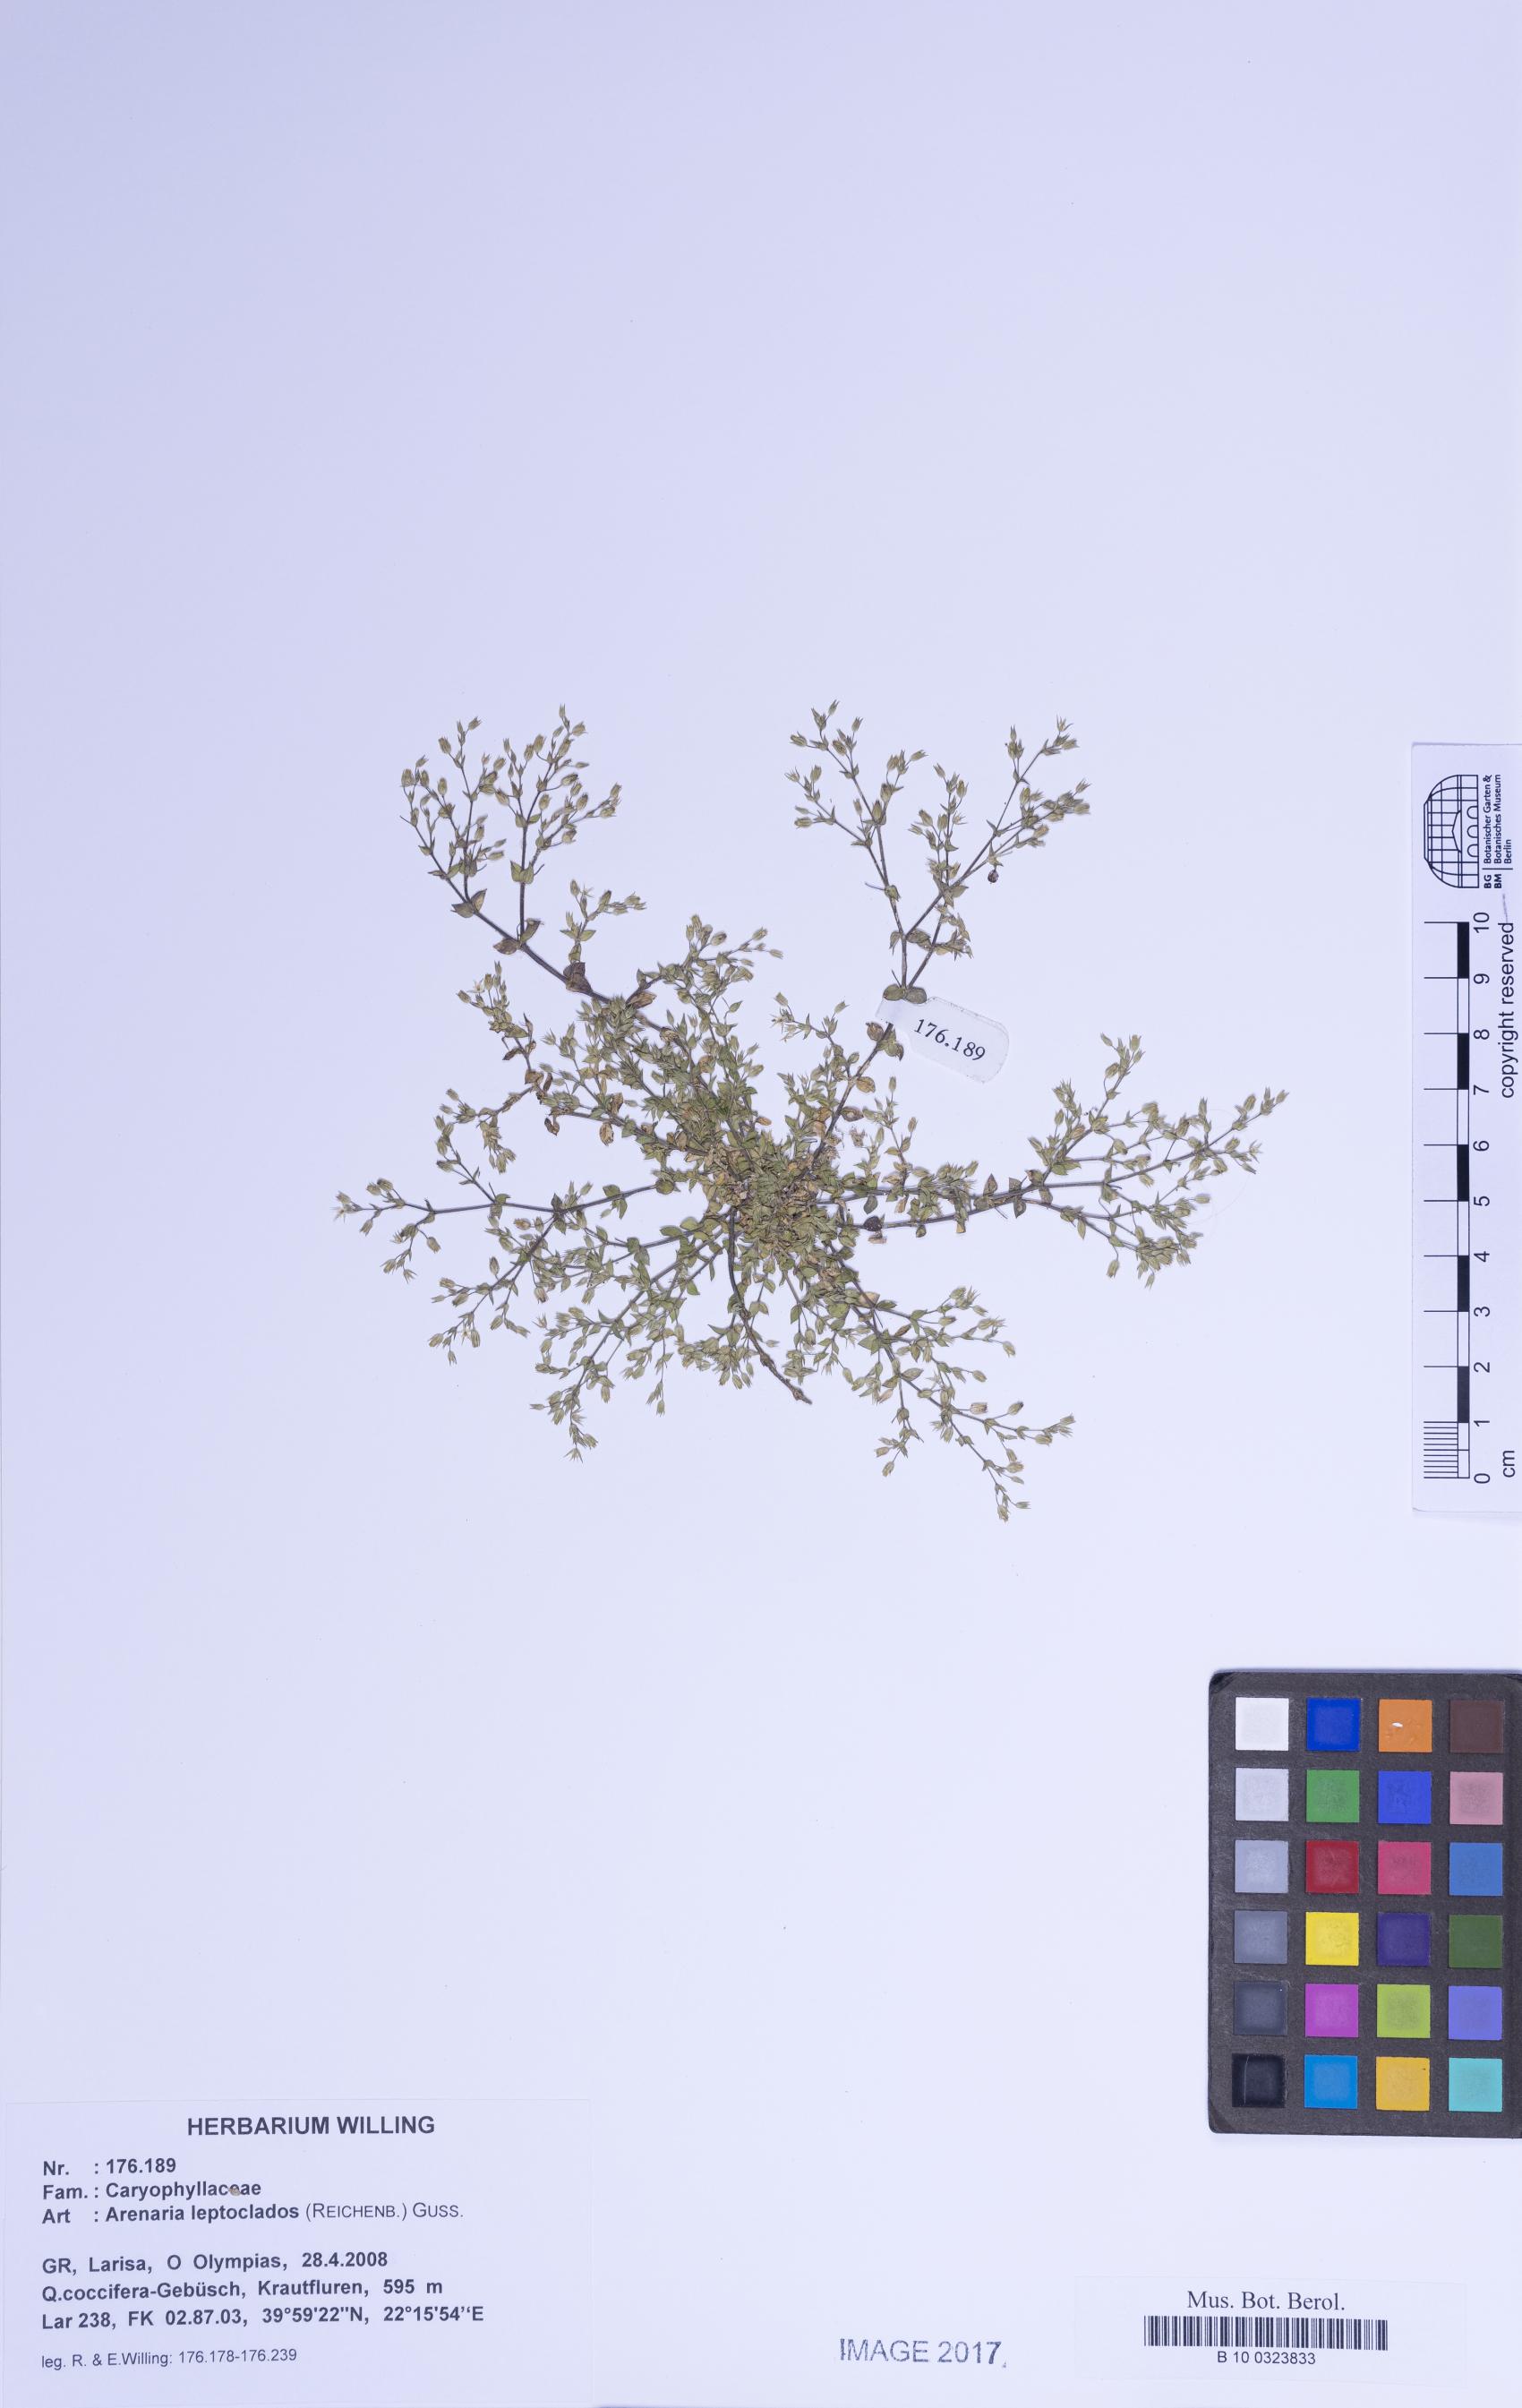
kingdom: Plantae
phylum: Tracheophyta
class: Magnoliopsida
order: Caryophyllales
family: Caryophyllaceae
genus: Arenaria
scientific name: Arenaria leptoclados
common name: Thyme-leaved sandwort
